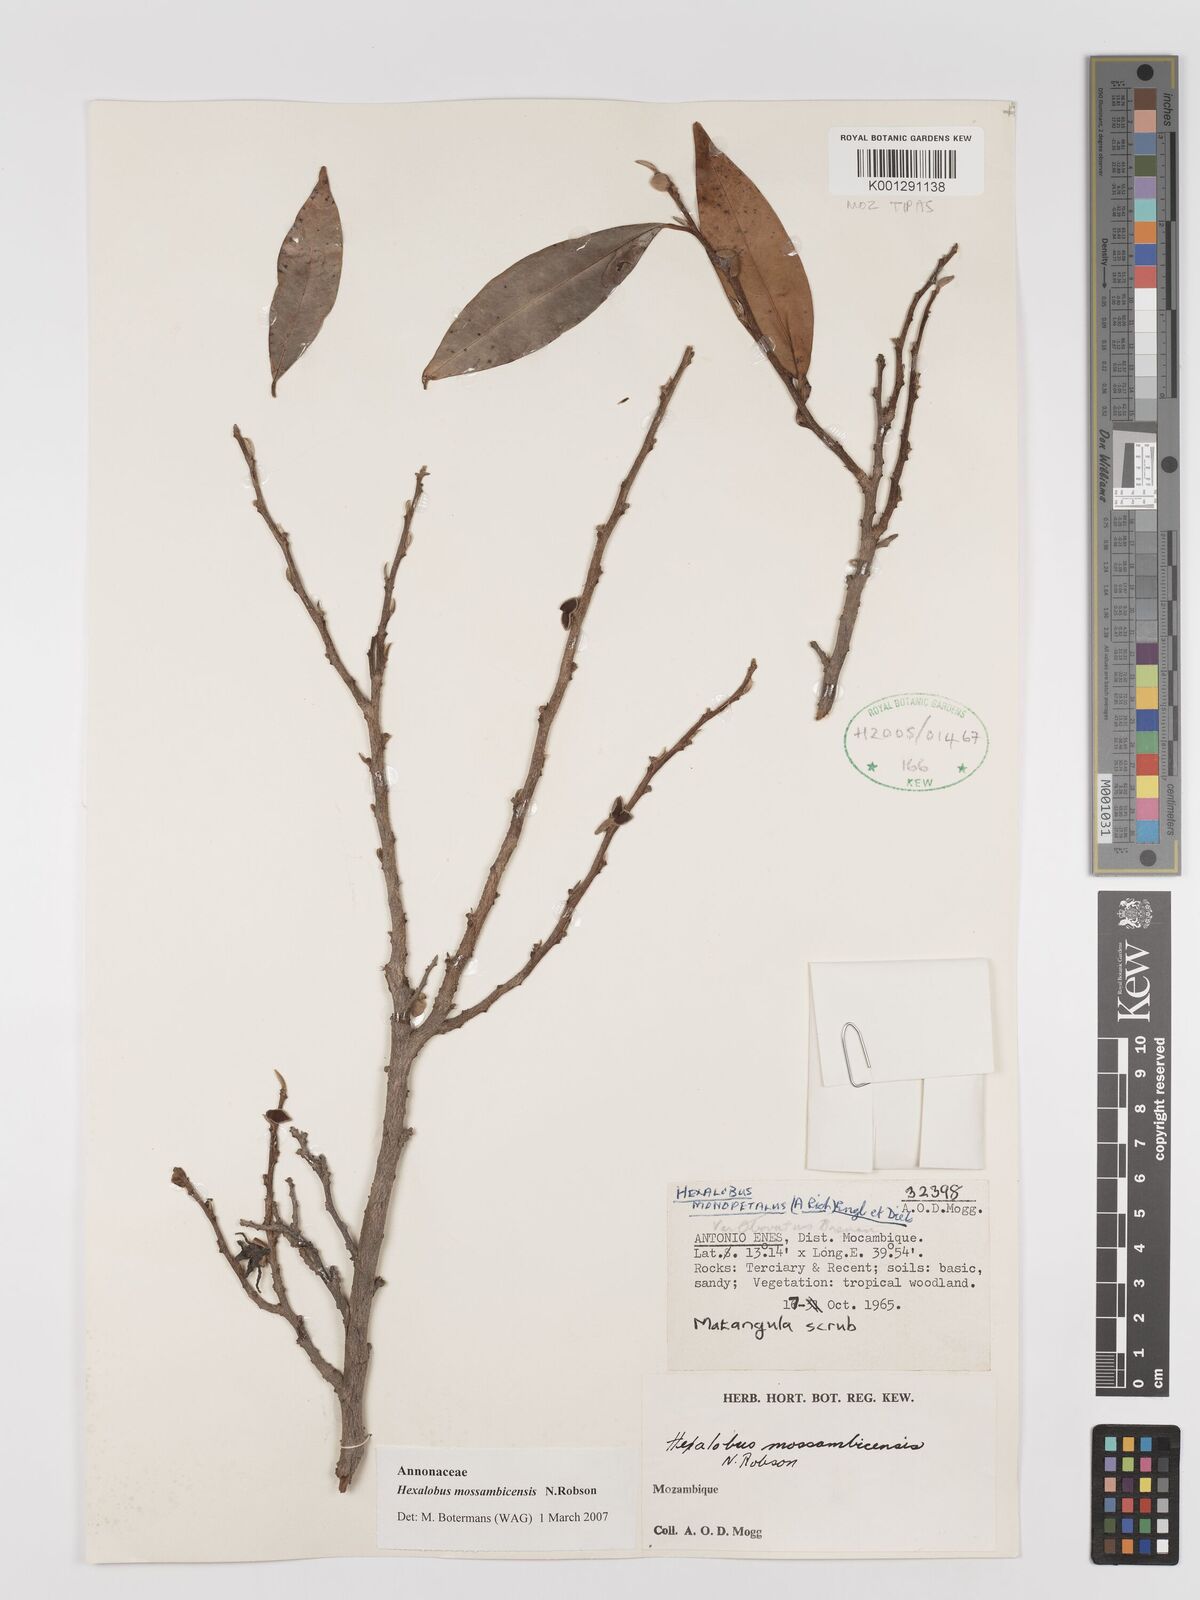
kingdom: Plantae
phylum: Tracheophyta
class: Magnoliopsida
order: Magnoliales
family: Annonaceae
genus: Hexalobus
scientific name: Hexalobus mossambicensis
